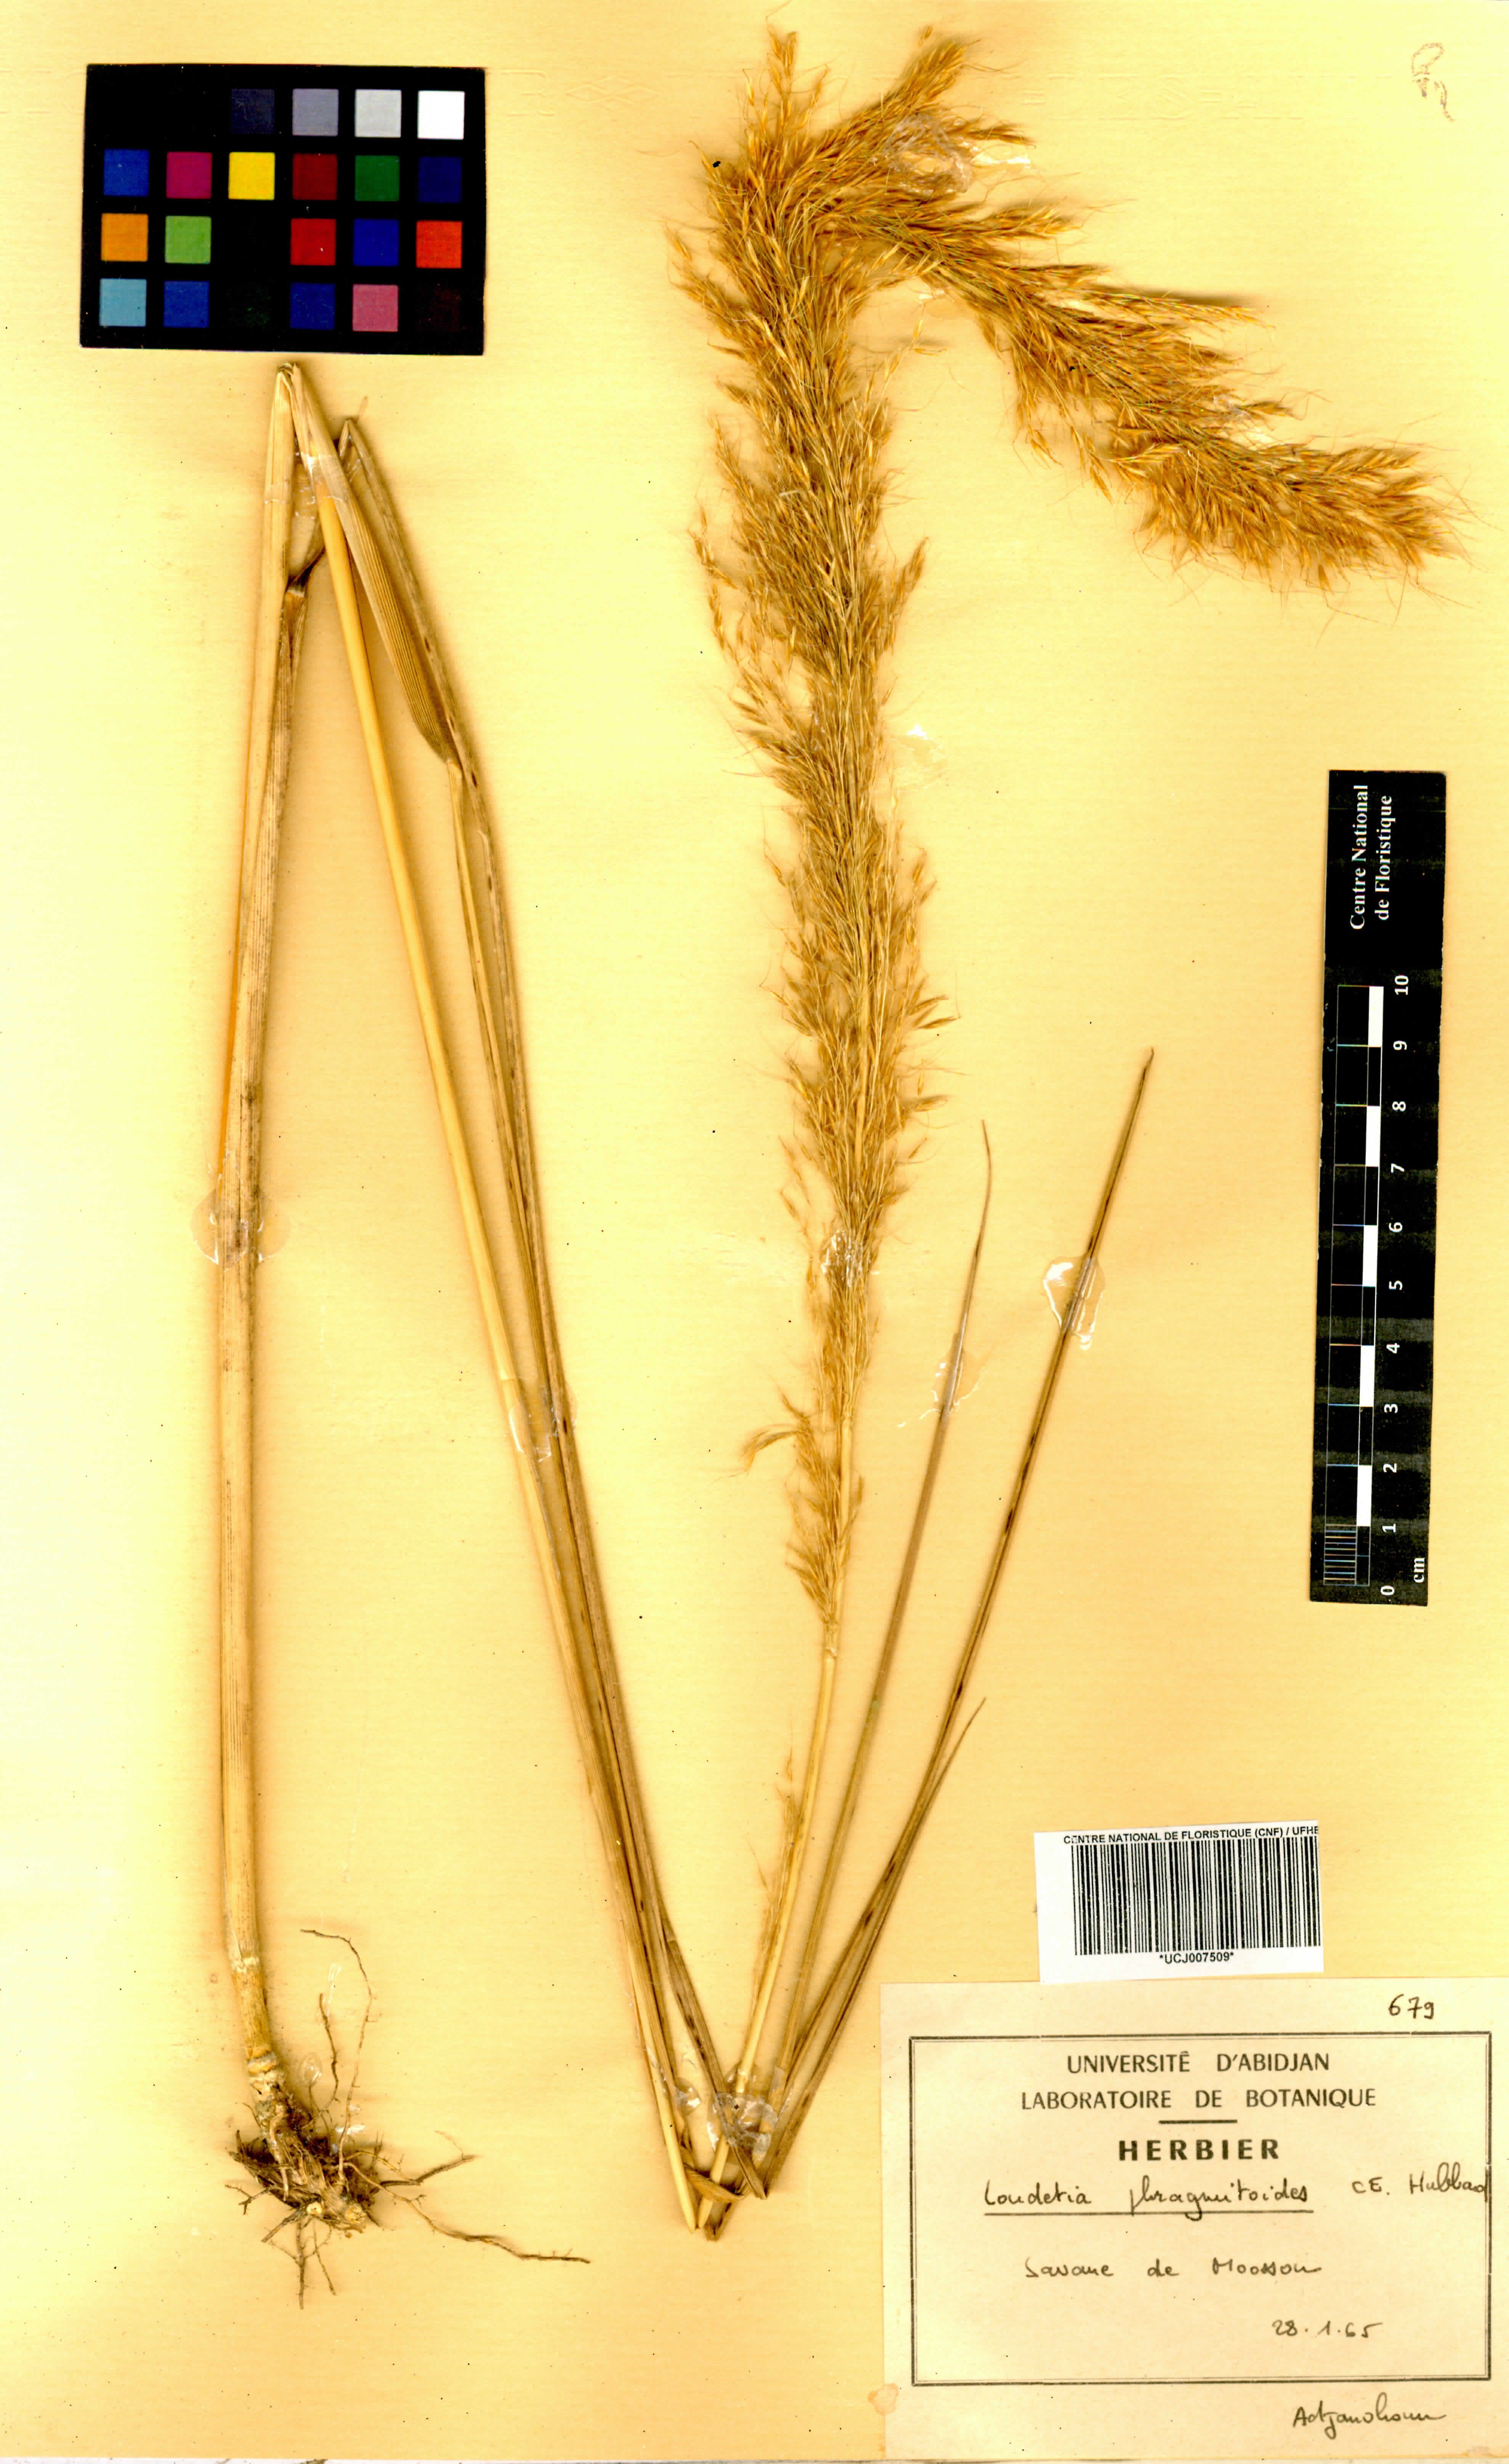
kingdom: Plantae
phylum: Tracheophyta
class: Liliopsida
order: Poales
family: Poaceae
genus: Loudetia
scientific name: Loudetia phragmitoides
